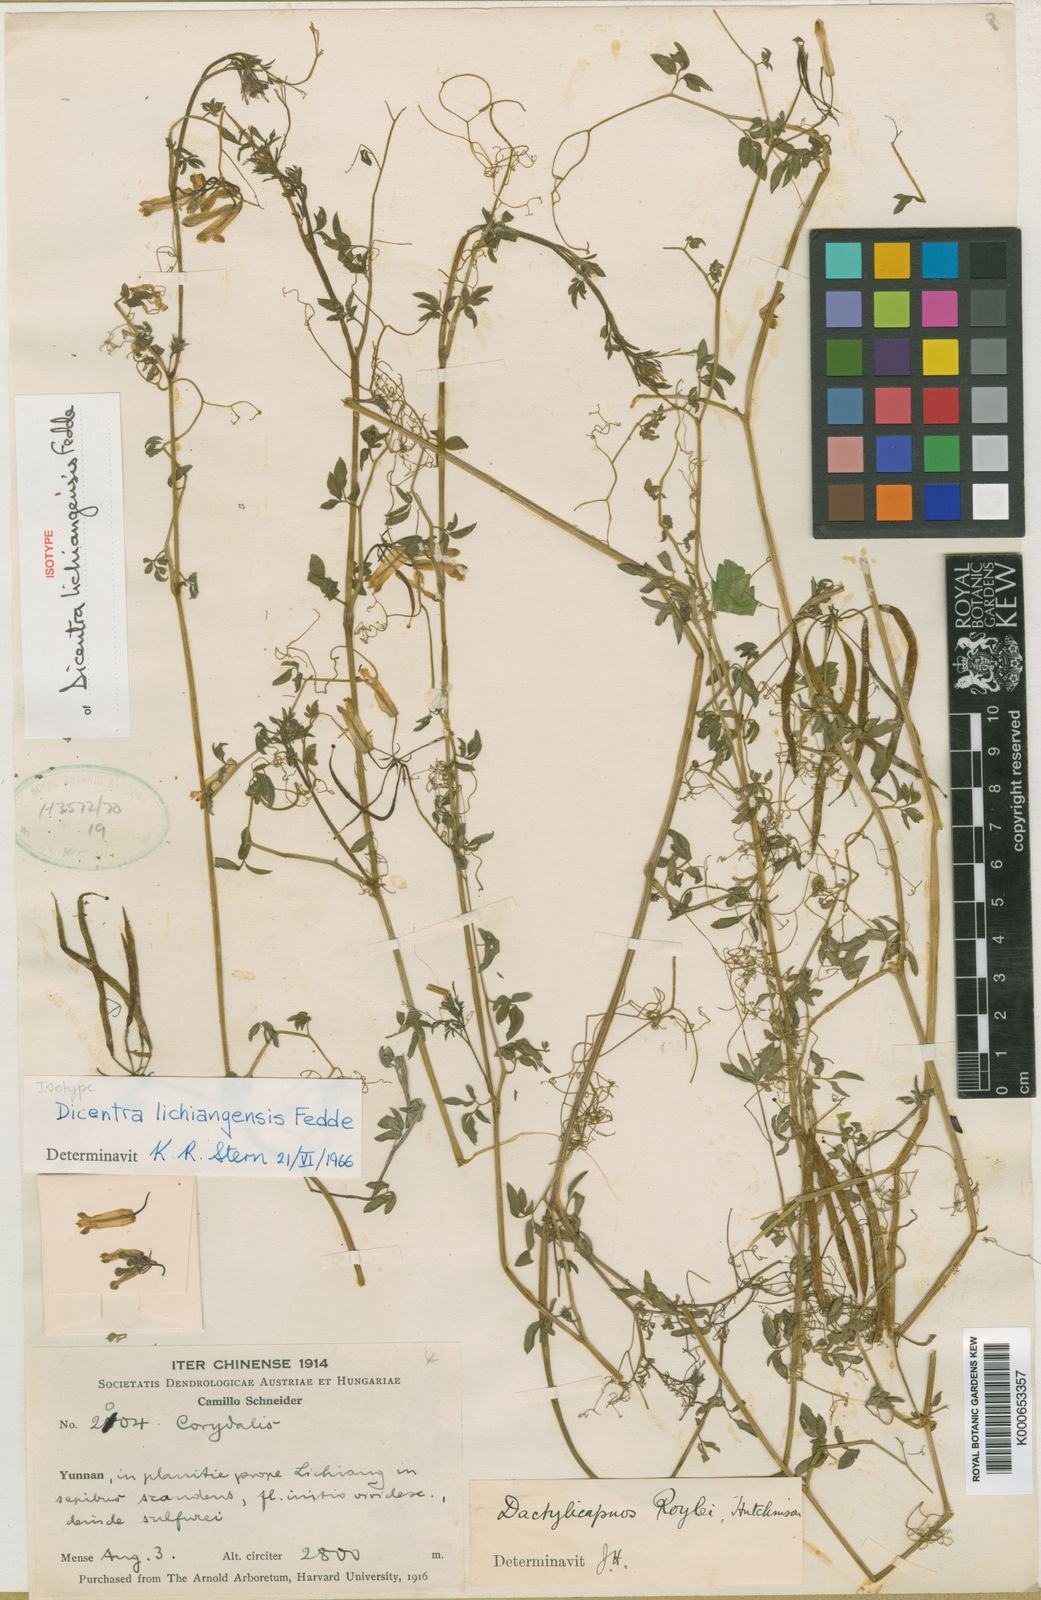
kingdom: Plantae
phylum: Tracheophyta
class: Magnoliopsida
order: Ranunculales
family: Papaveraceae
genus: Dactylicapnos
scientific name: Dactylicapnos lichiangensis
